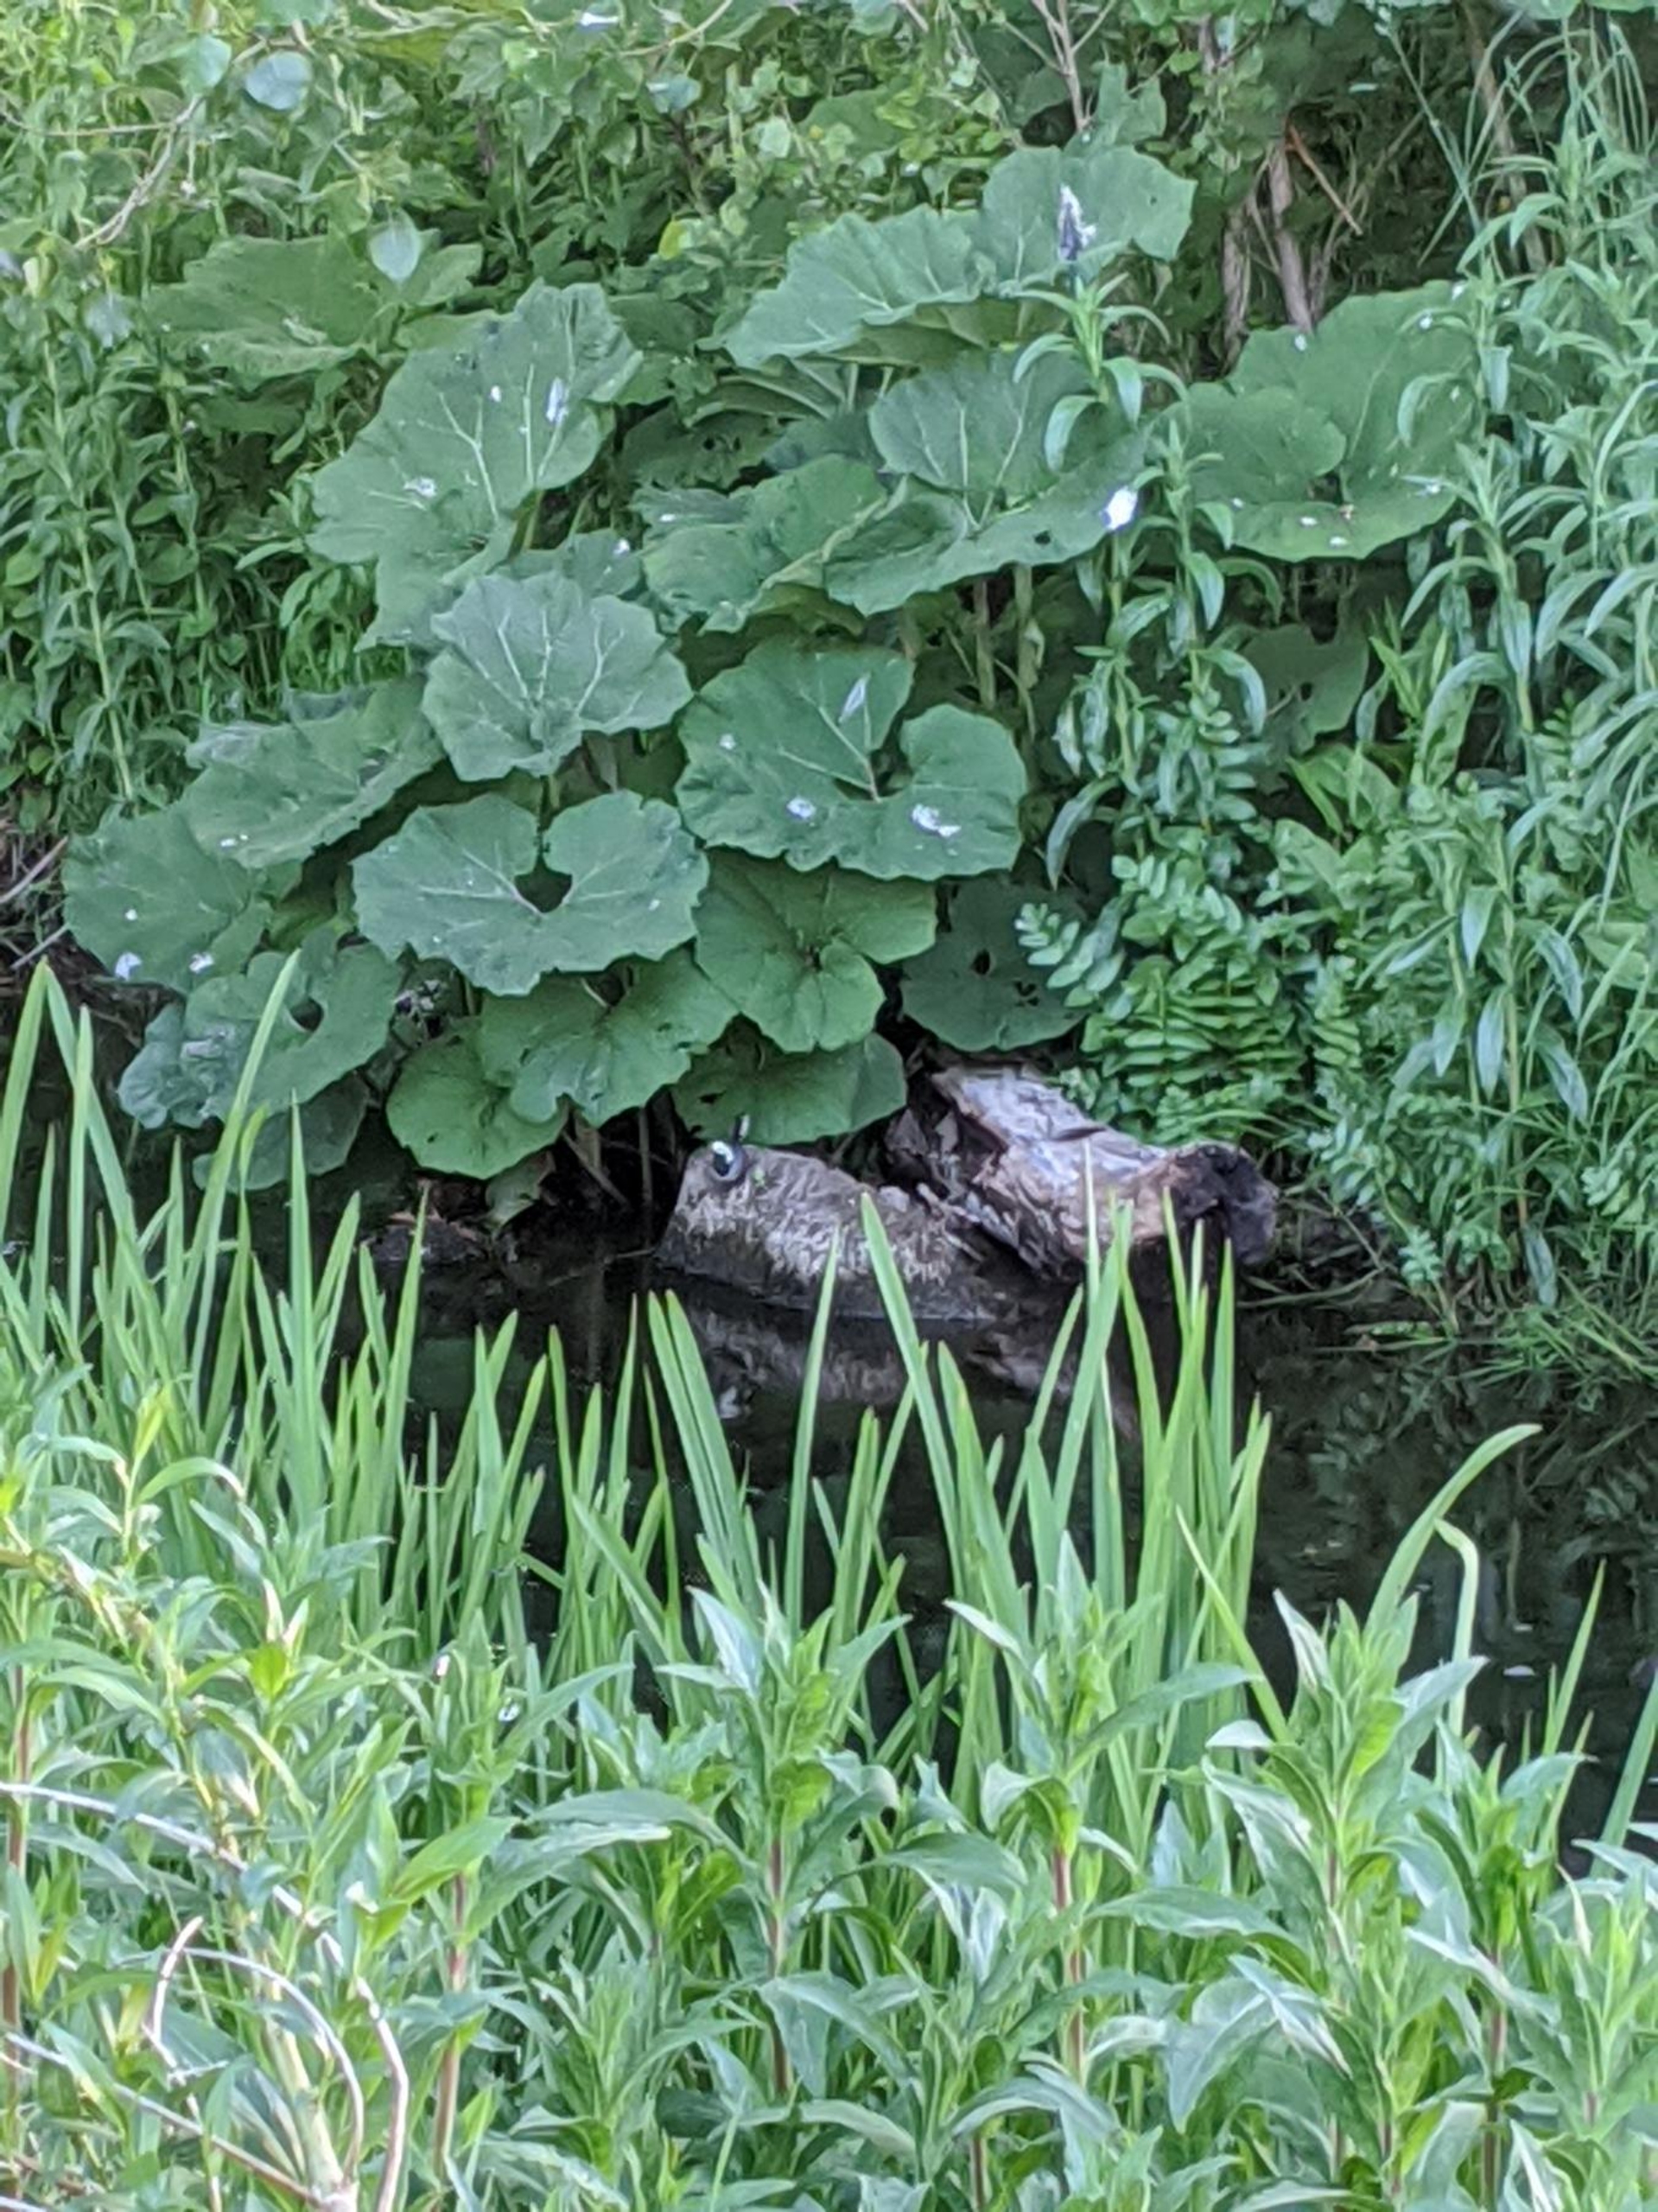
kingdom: Plantae
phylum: Tracheophyta
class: Magnoliopsida
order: Asterales
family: Asteraceae
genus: Petasites
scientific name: Petasites hybridus
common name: Rød hestehov
